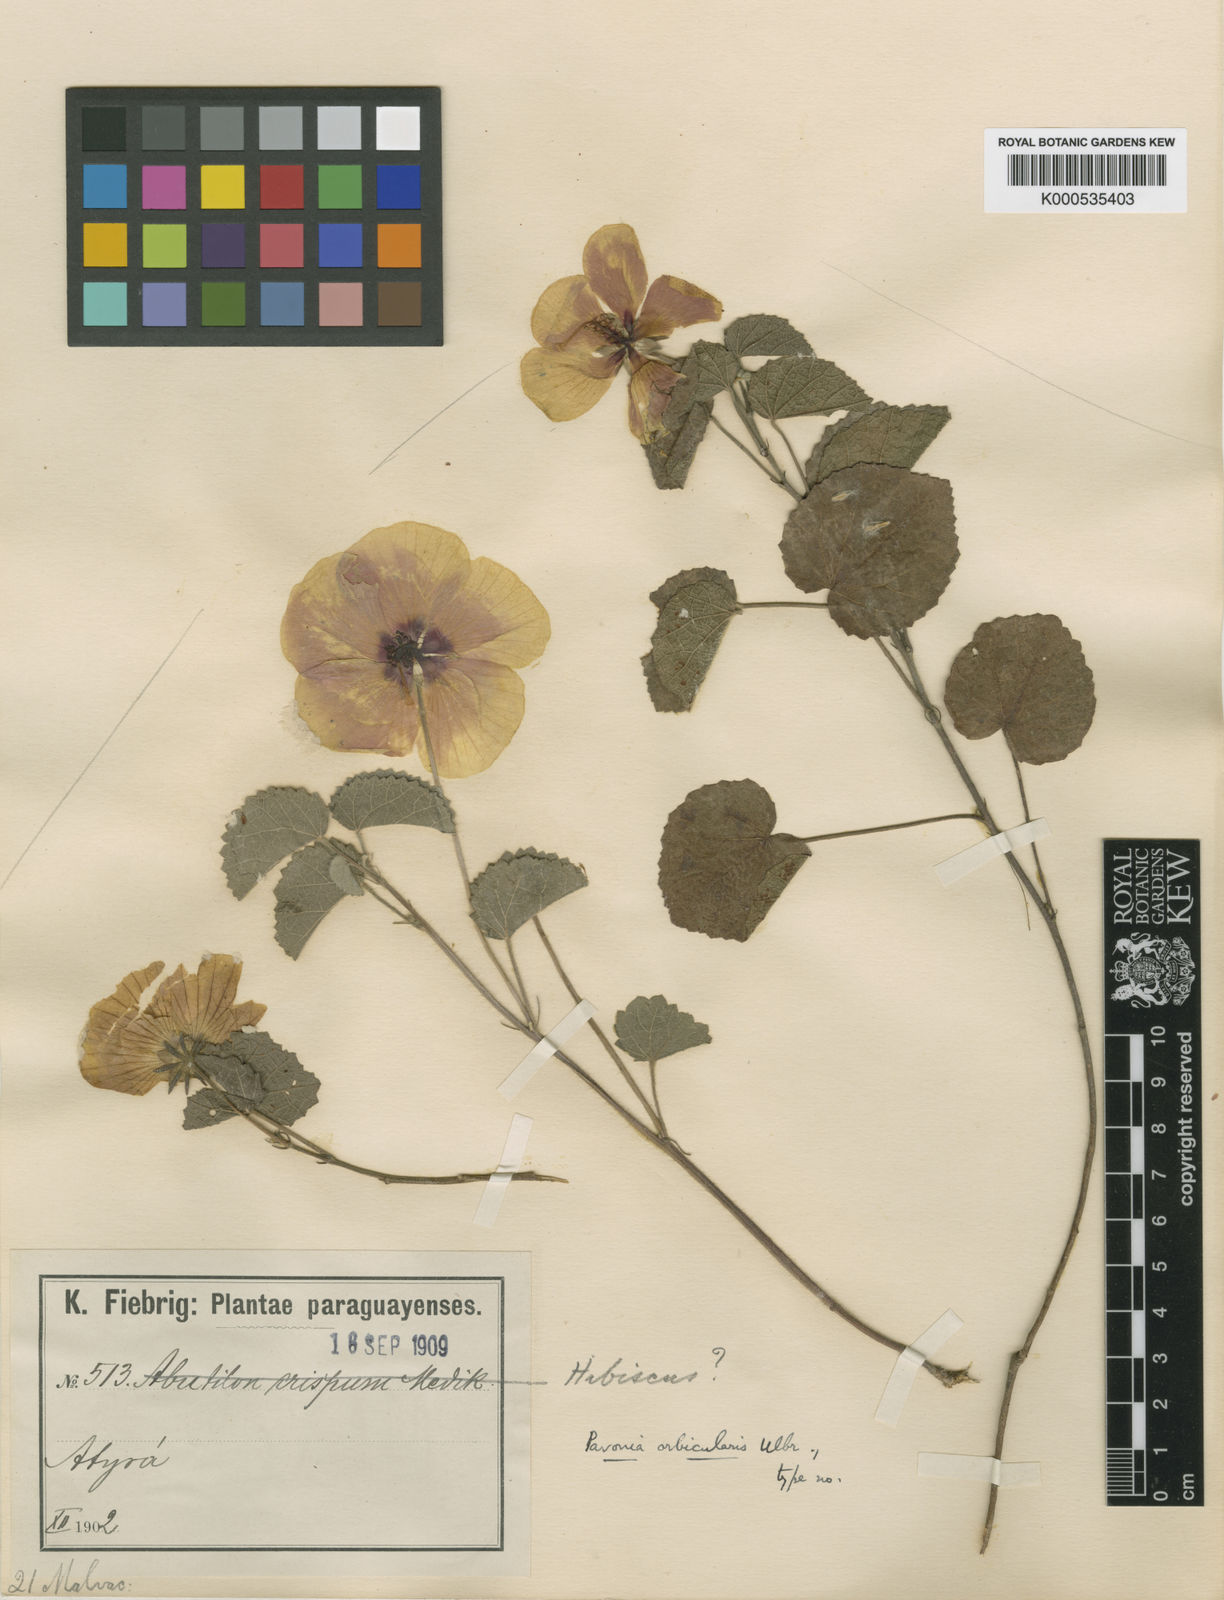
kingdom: Plantae
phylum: Tracheophyta
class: Magnoliopsida
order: Malvales
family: Malvaceae
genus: Pavonia
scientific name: Pavonia subrotunda
